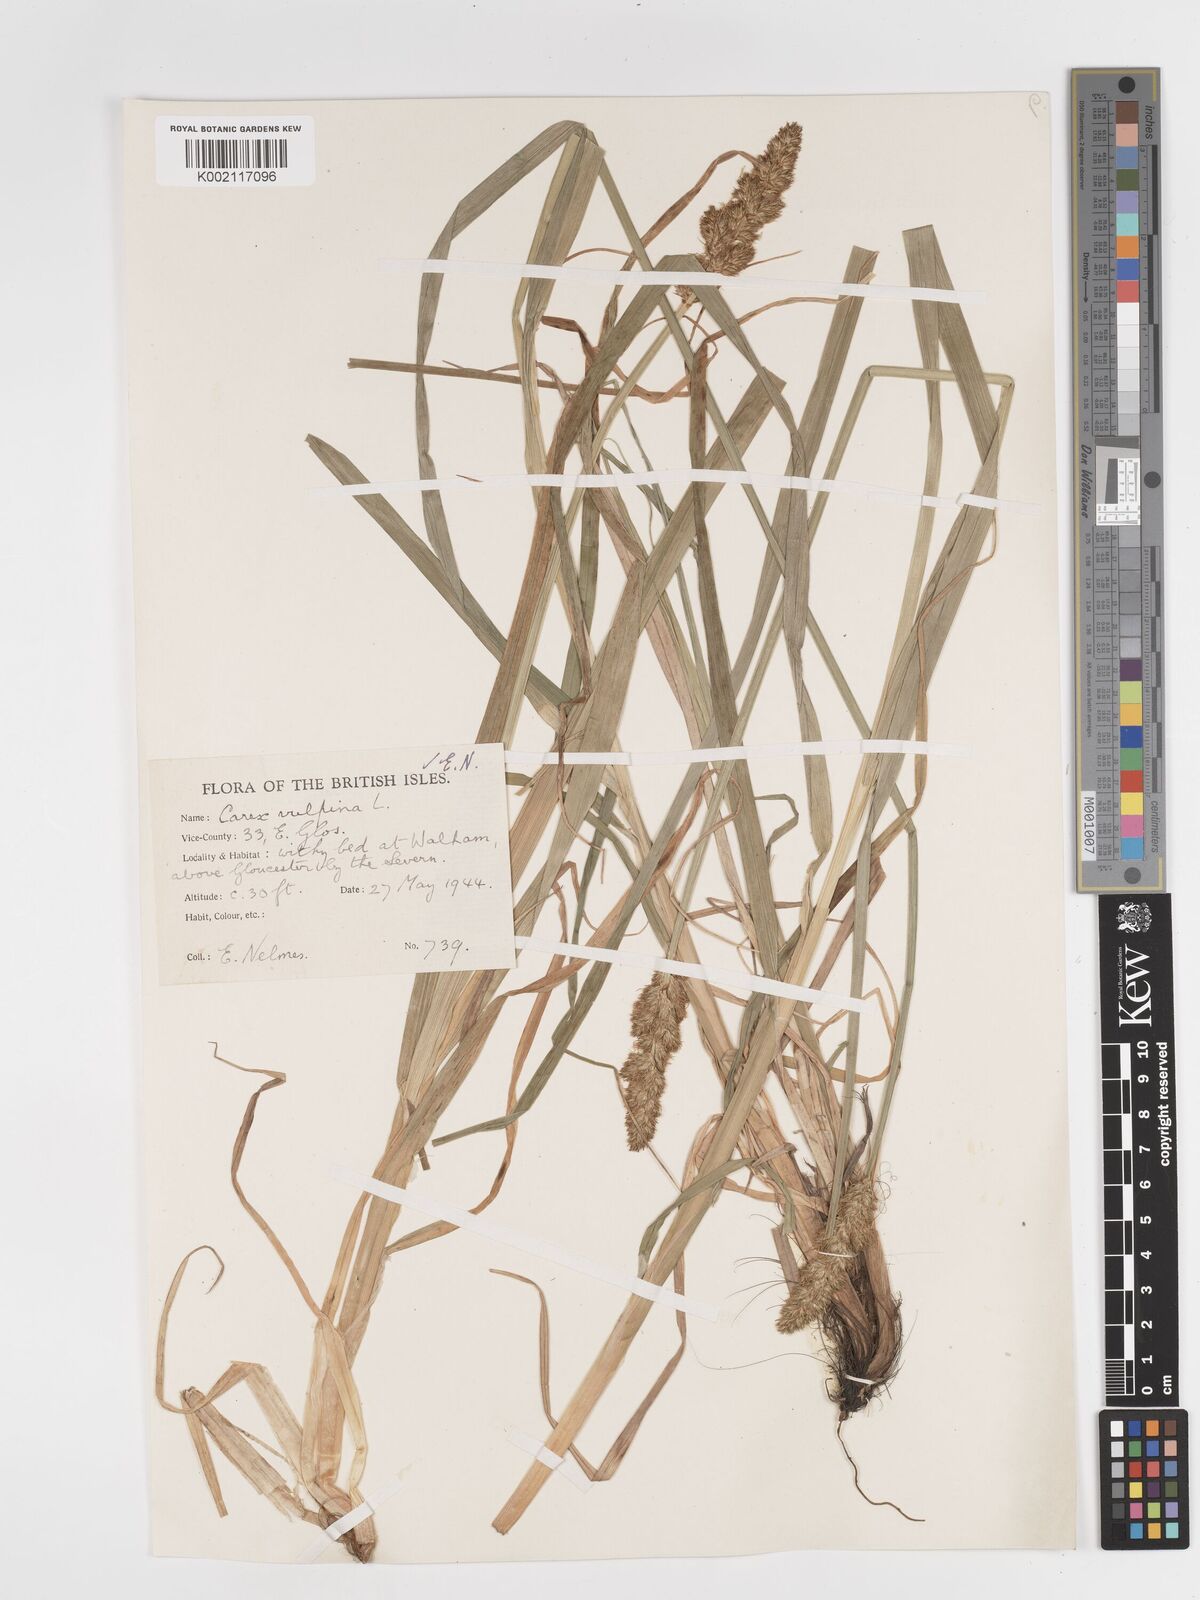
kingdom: Plantae
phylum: Tracheophyta
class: Liliopsida
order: Poales
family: Cyperaceae
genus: Carex
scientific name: Carex vulpina
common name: True fox-sedge
